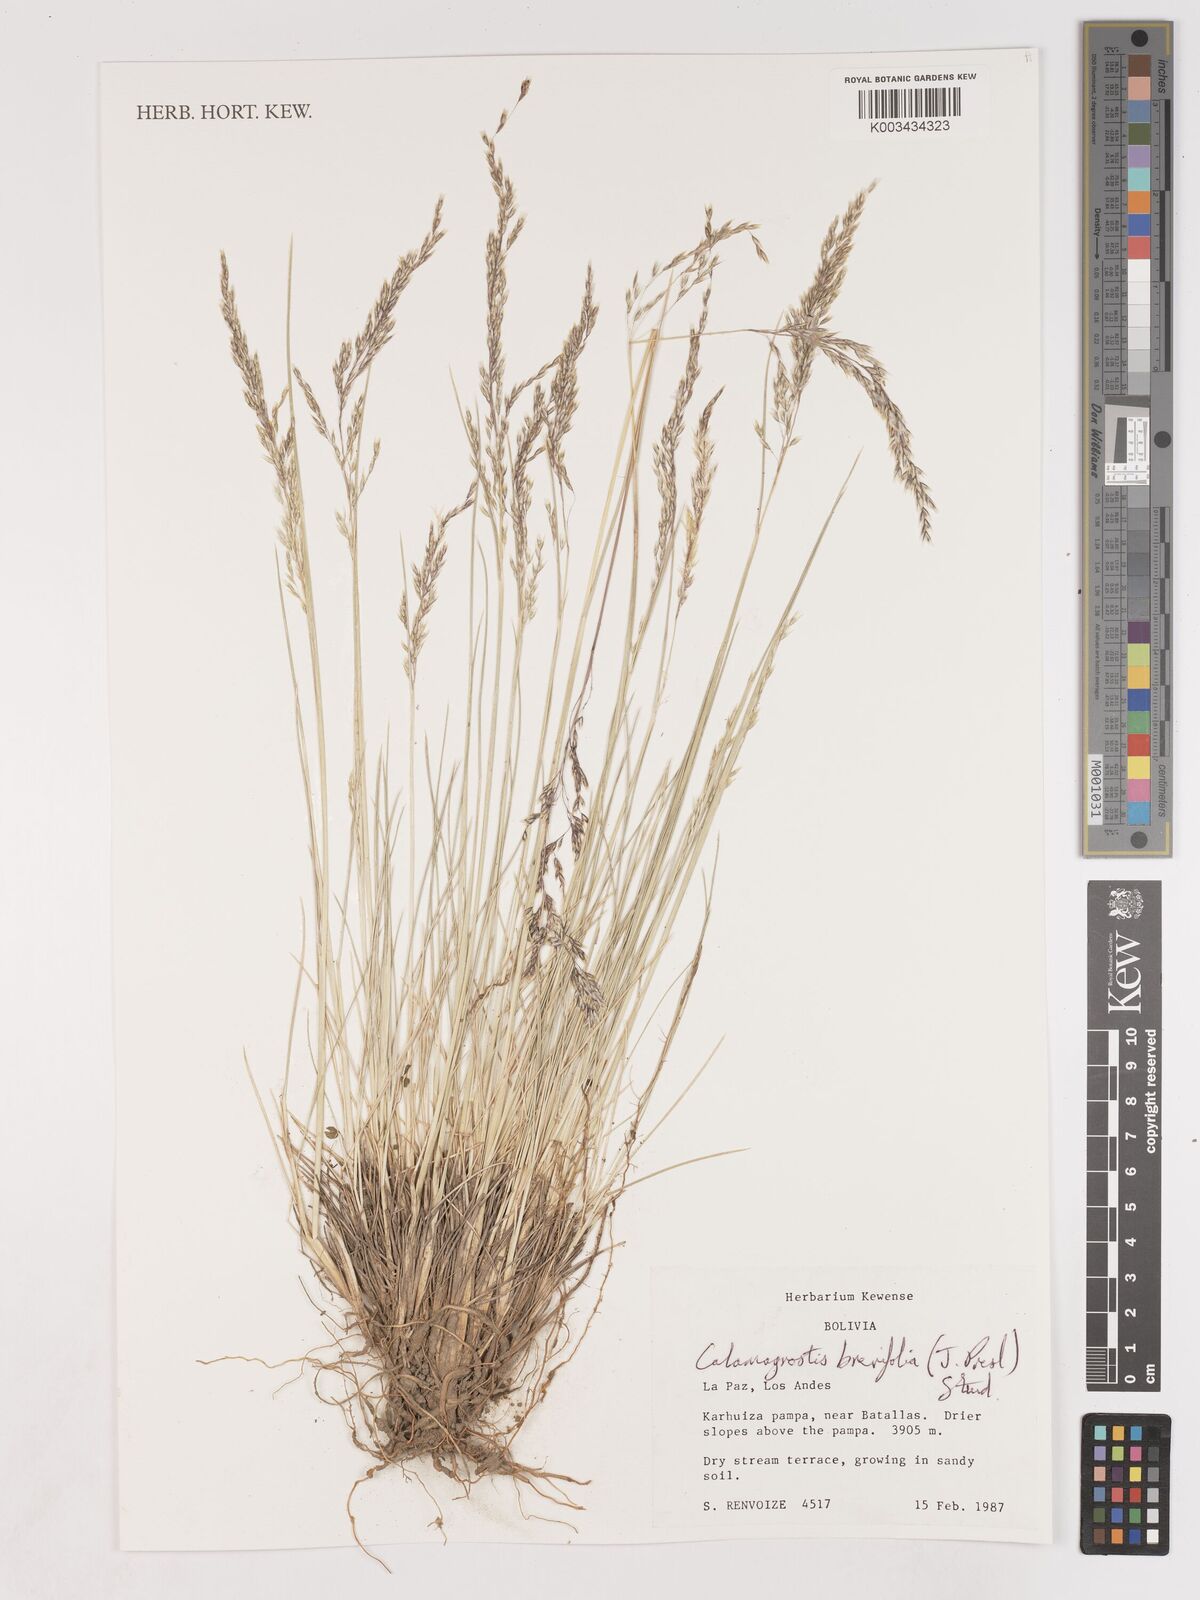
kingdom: Plantae
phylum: Tracheophyta
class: Liliopsida
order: Poales
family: Poaceae
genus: Cinnagrostis
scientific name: Cinnagrostis brevifolia
